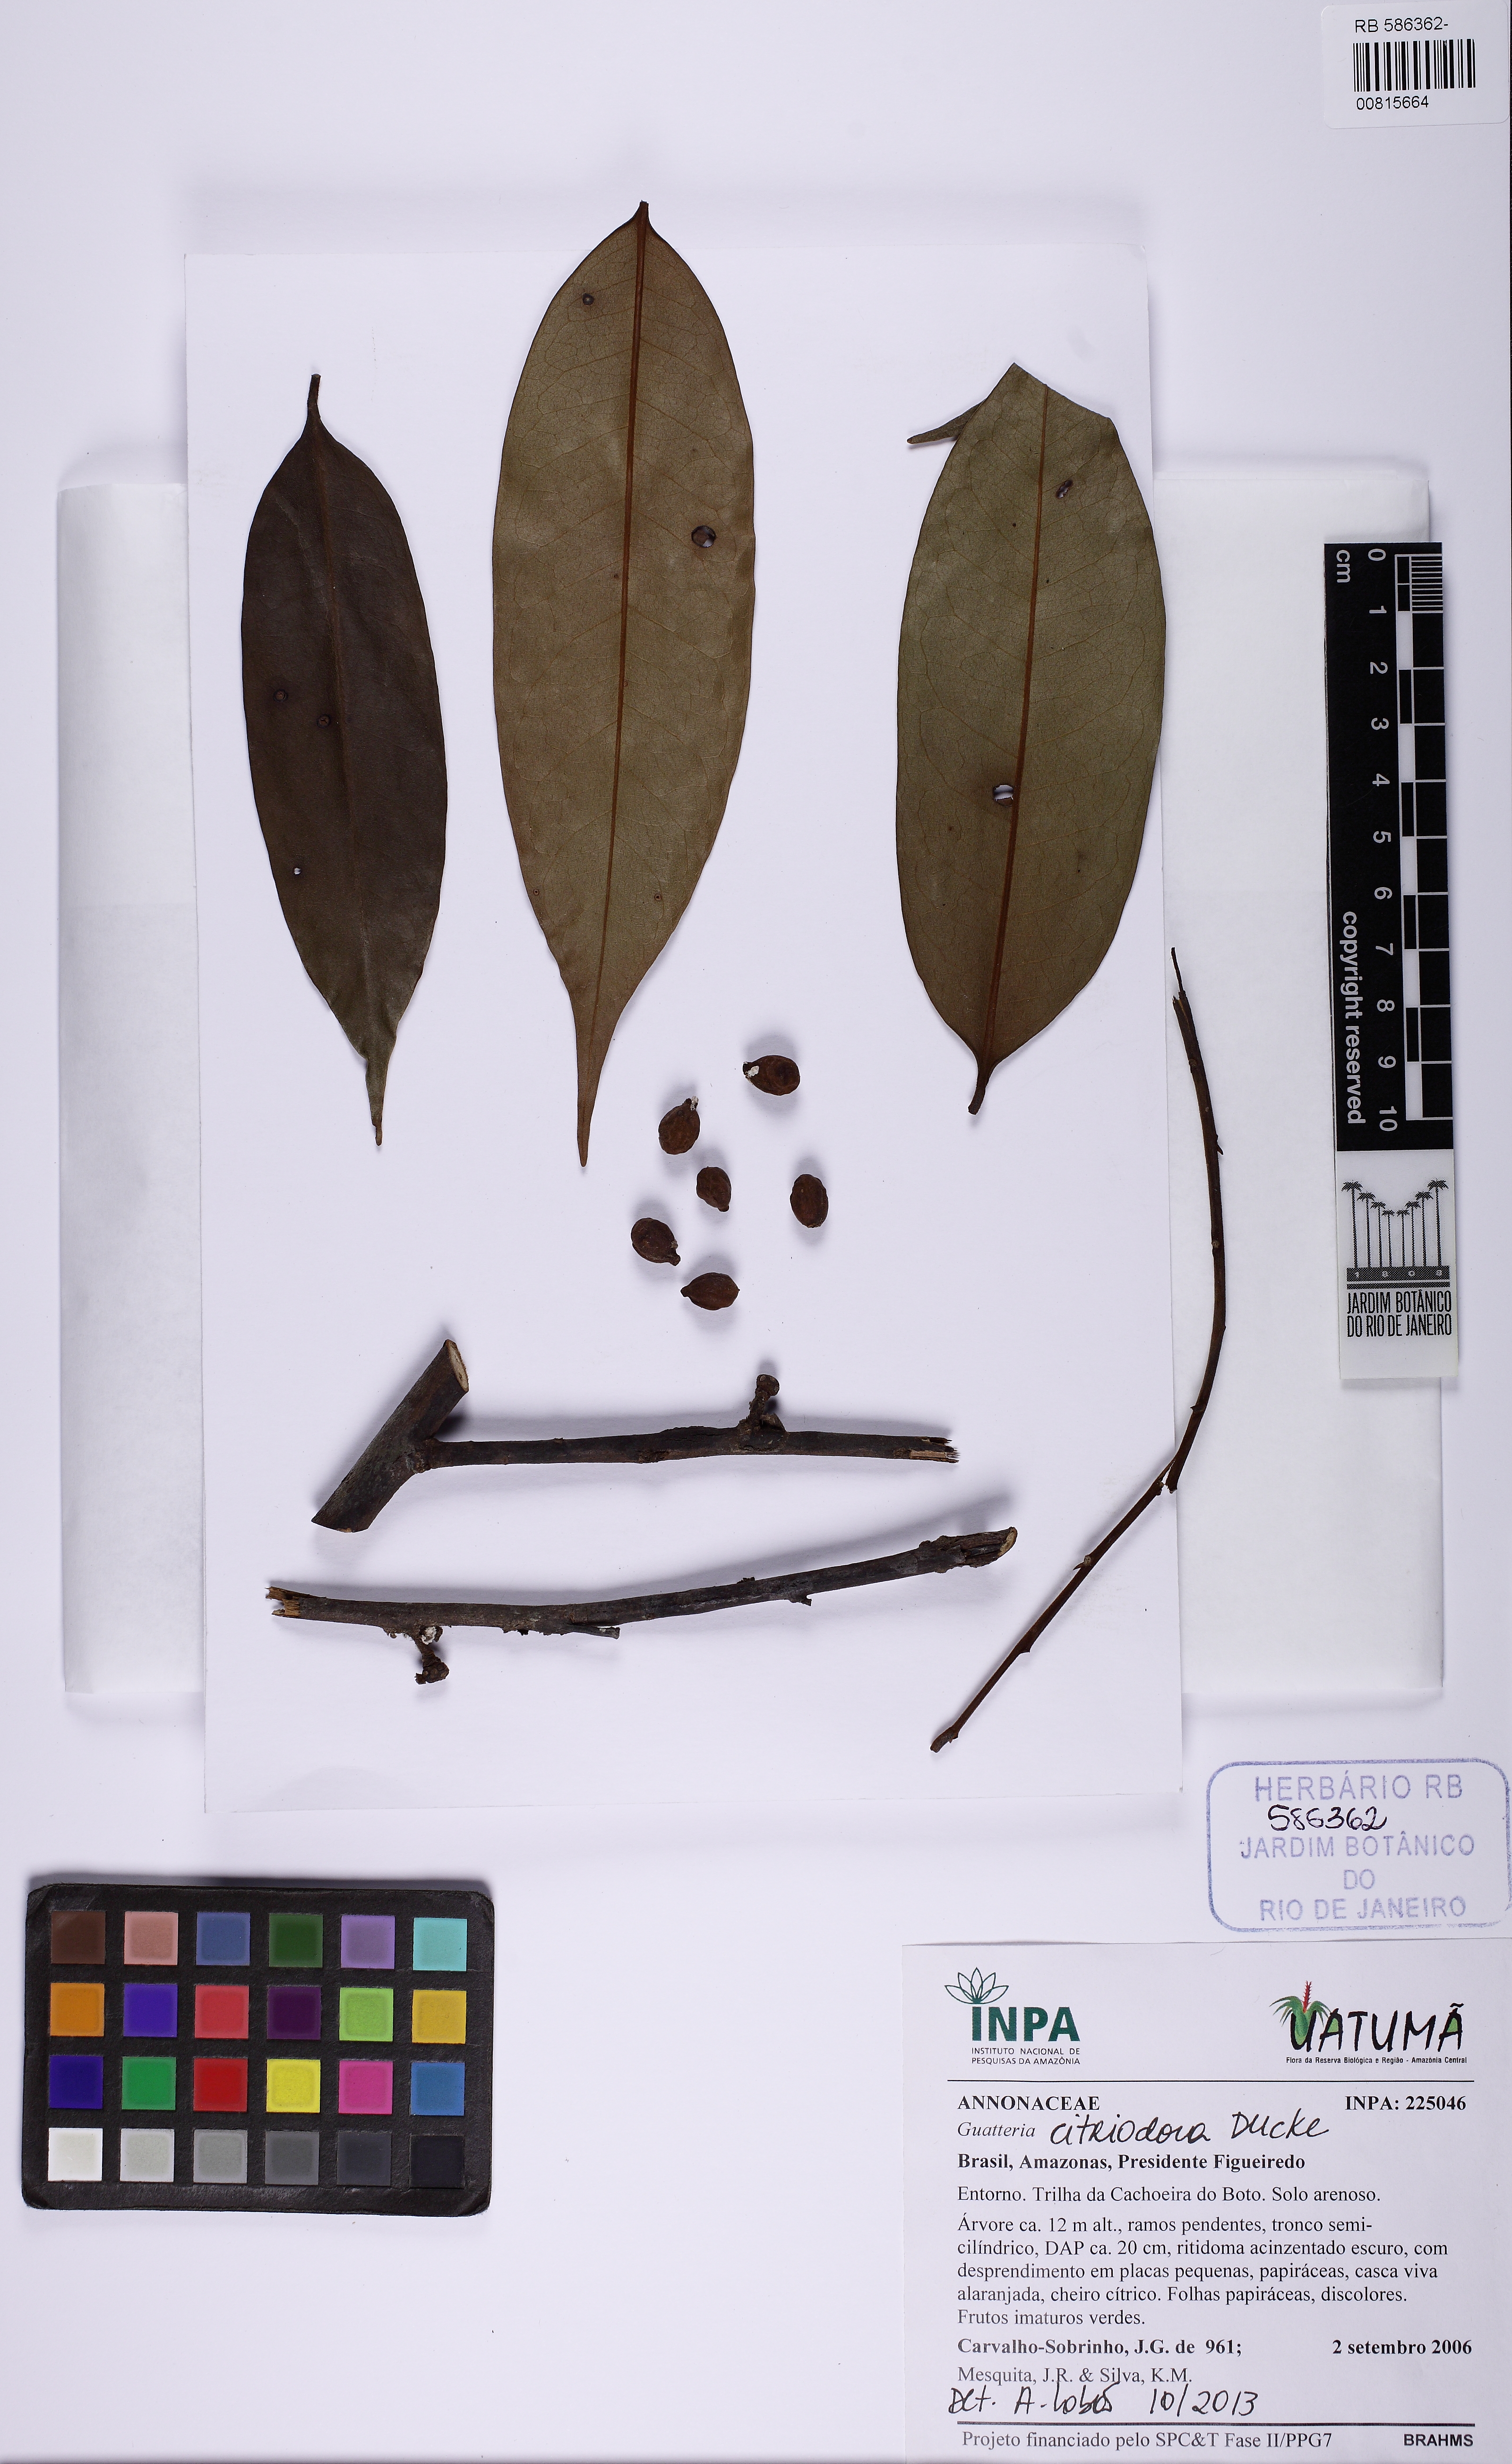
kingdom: Plantae
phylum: Tracheophyta
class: Magnoliopsida
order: Magnoliales
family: Annonaceae
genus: Guatteria
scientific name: Guatteria citriodora
